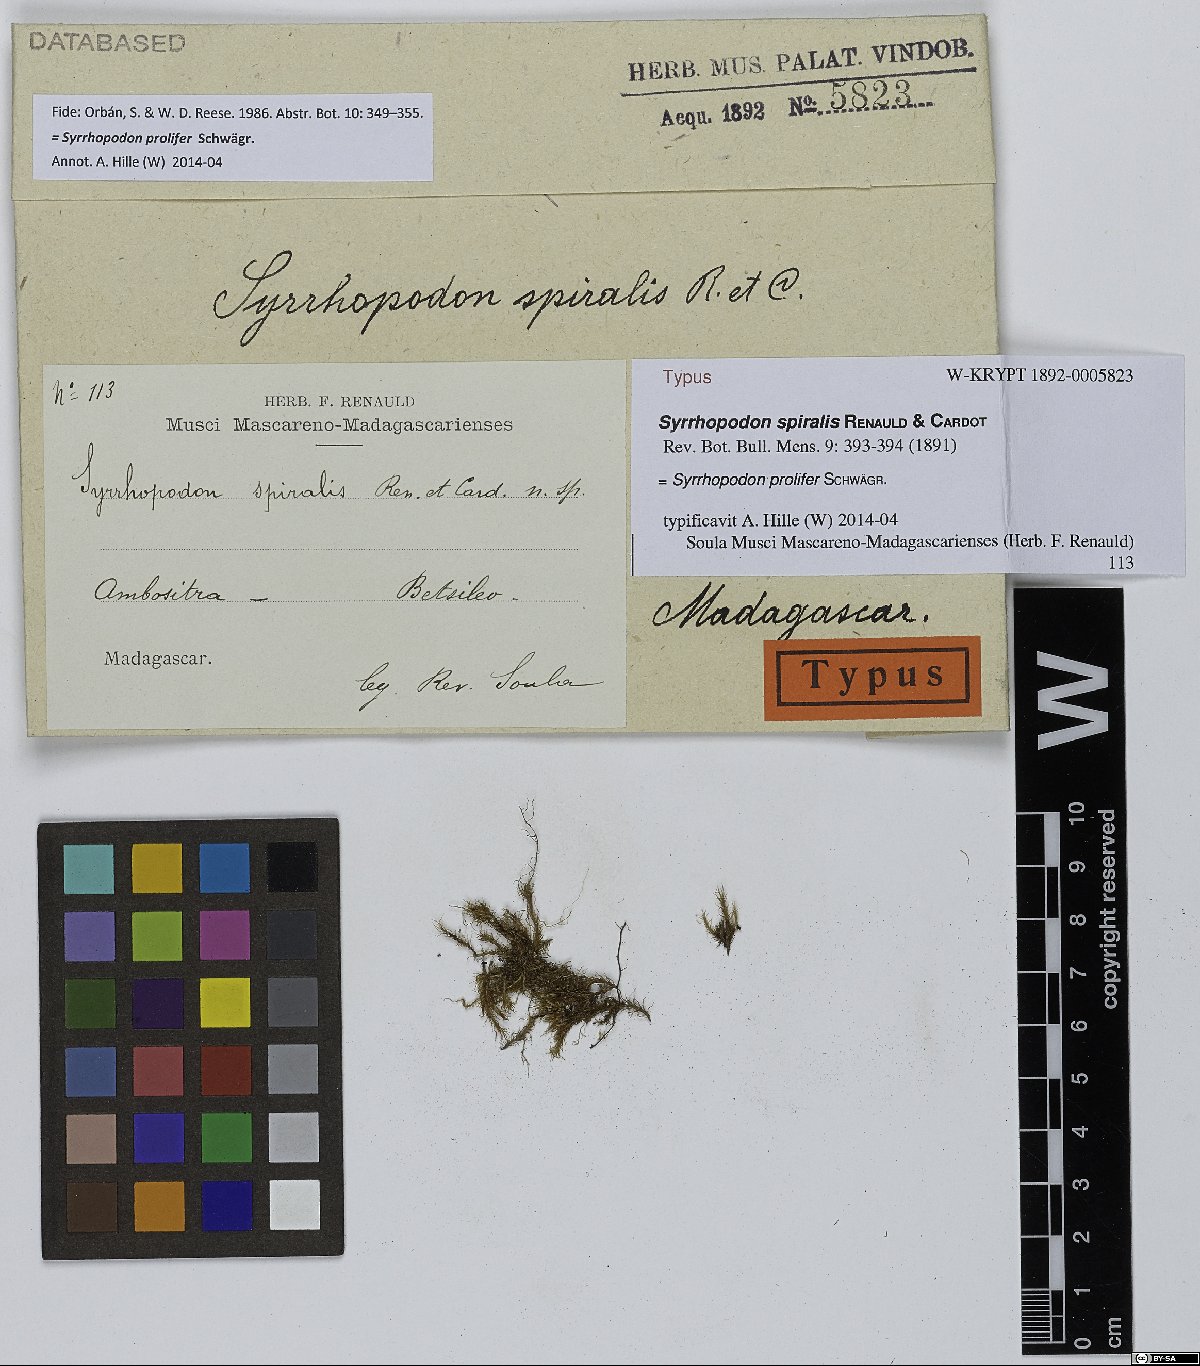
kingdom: Plantae
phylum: Bryophyta
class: Bryopsida
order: Dicranales
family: Calymperaceae
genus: Syrrhopodon
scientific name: Syrrhopodon spiralis
